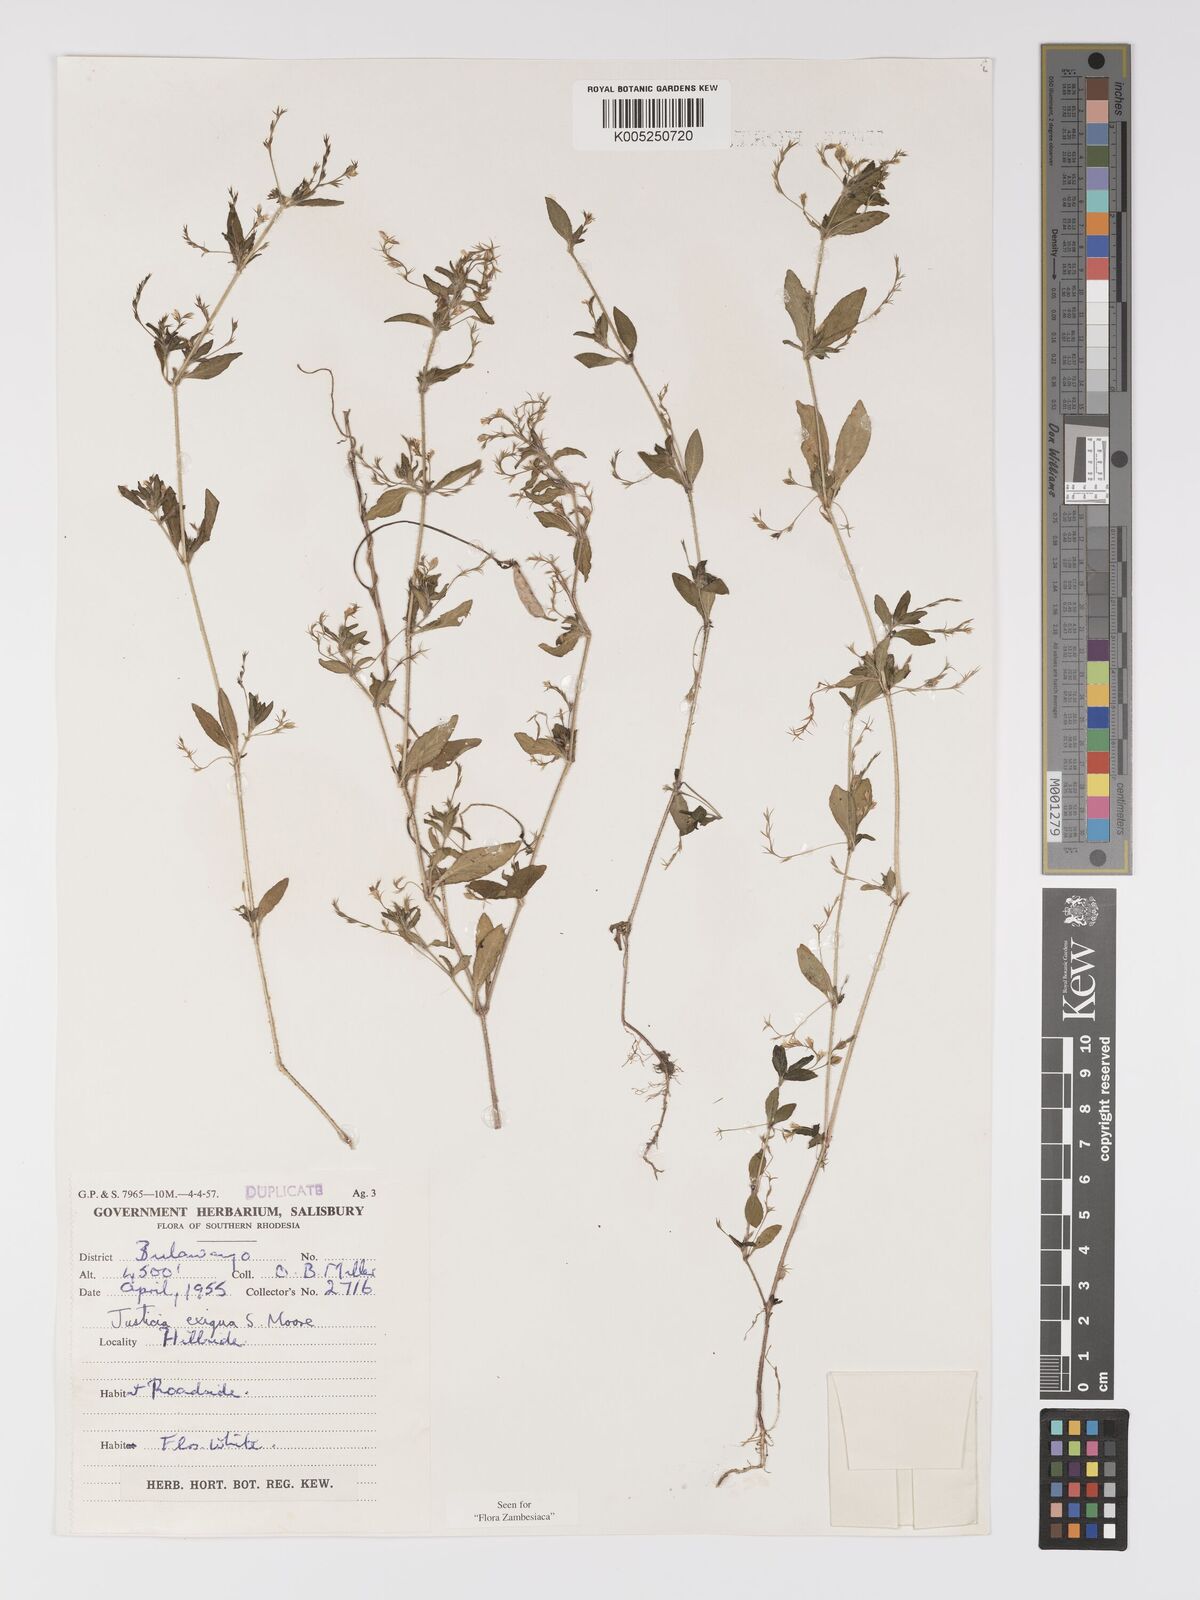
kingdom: Plantae
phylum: Tracheophyta
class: Magnoliopsida
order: Lamiales
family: Acanthaceae
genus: Justicia
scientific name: Justicia exigua
